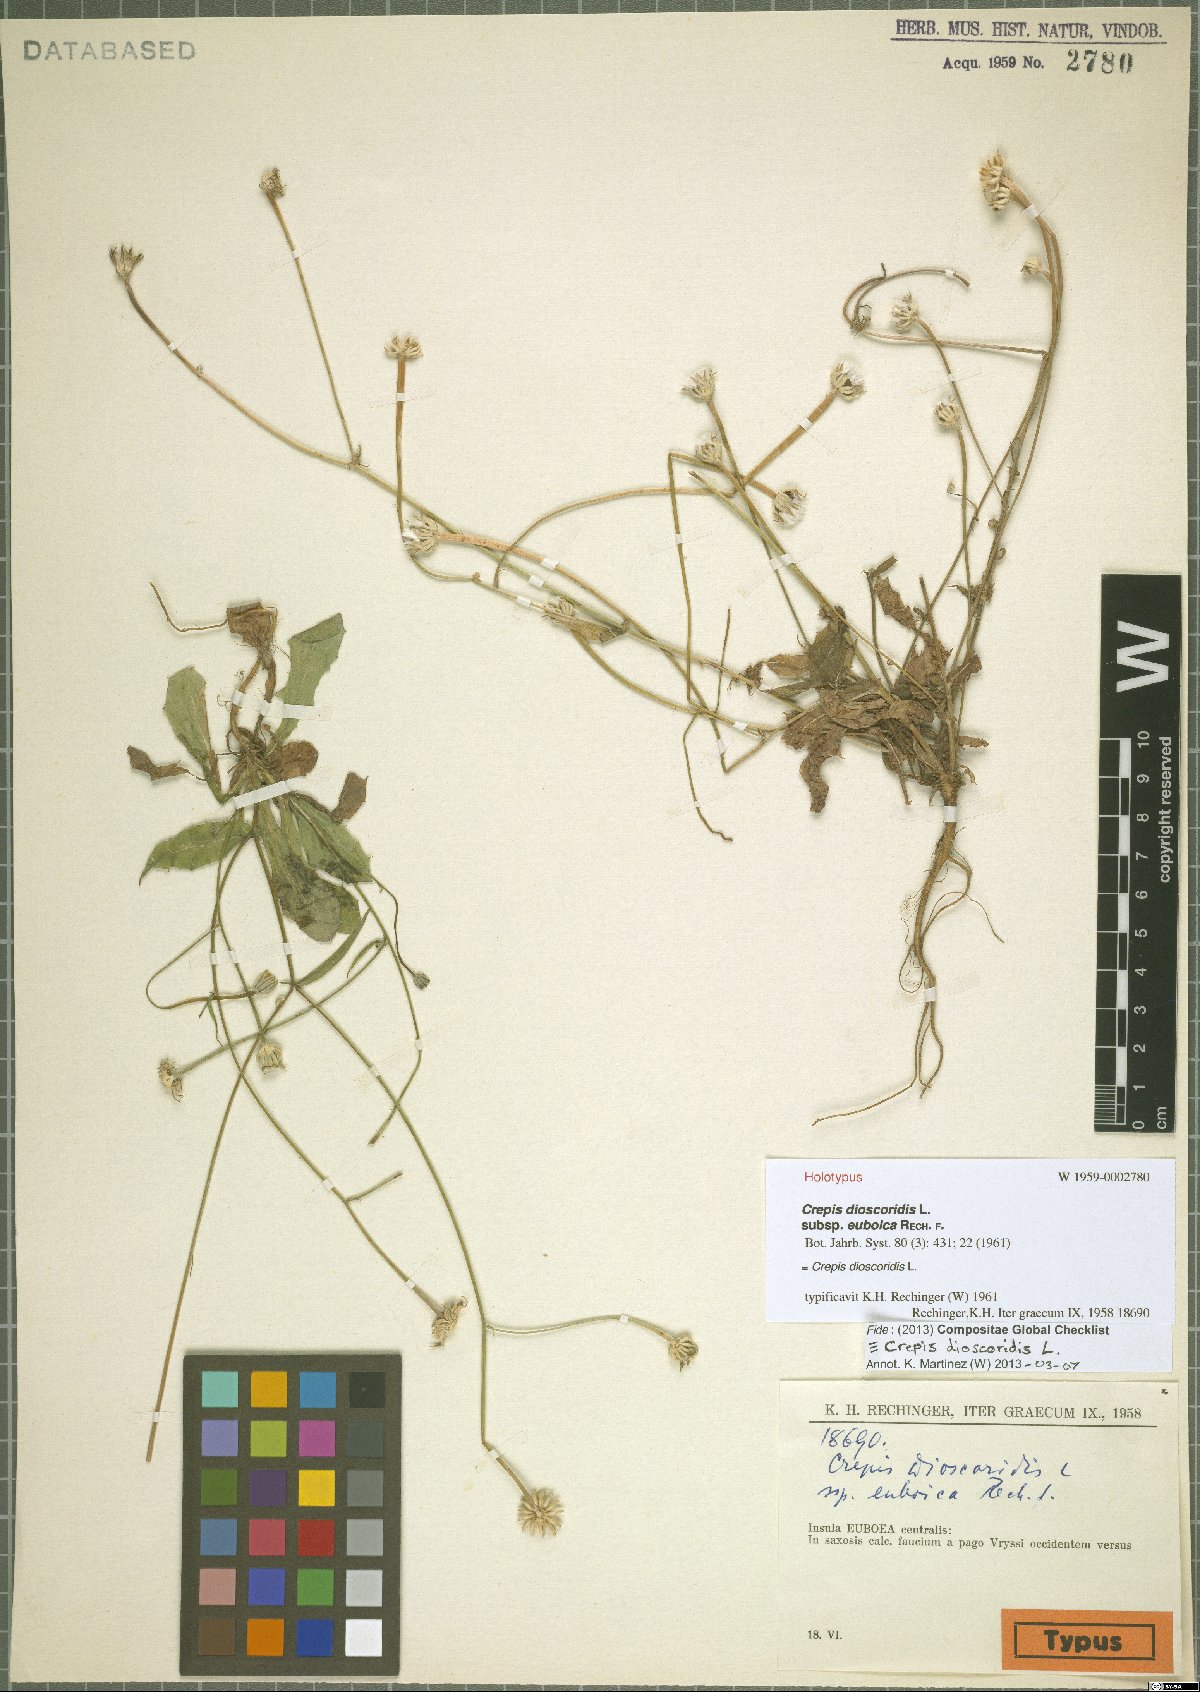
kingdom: Plantae
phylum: Tracheophyta
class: Magnoliopsida
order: Asterales
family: Asteraceae
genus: Crepis
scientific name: Crepis dioscoridis
